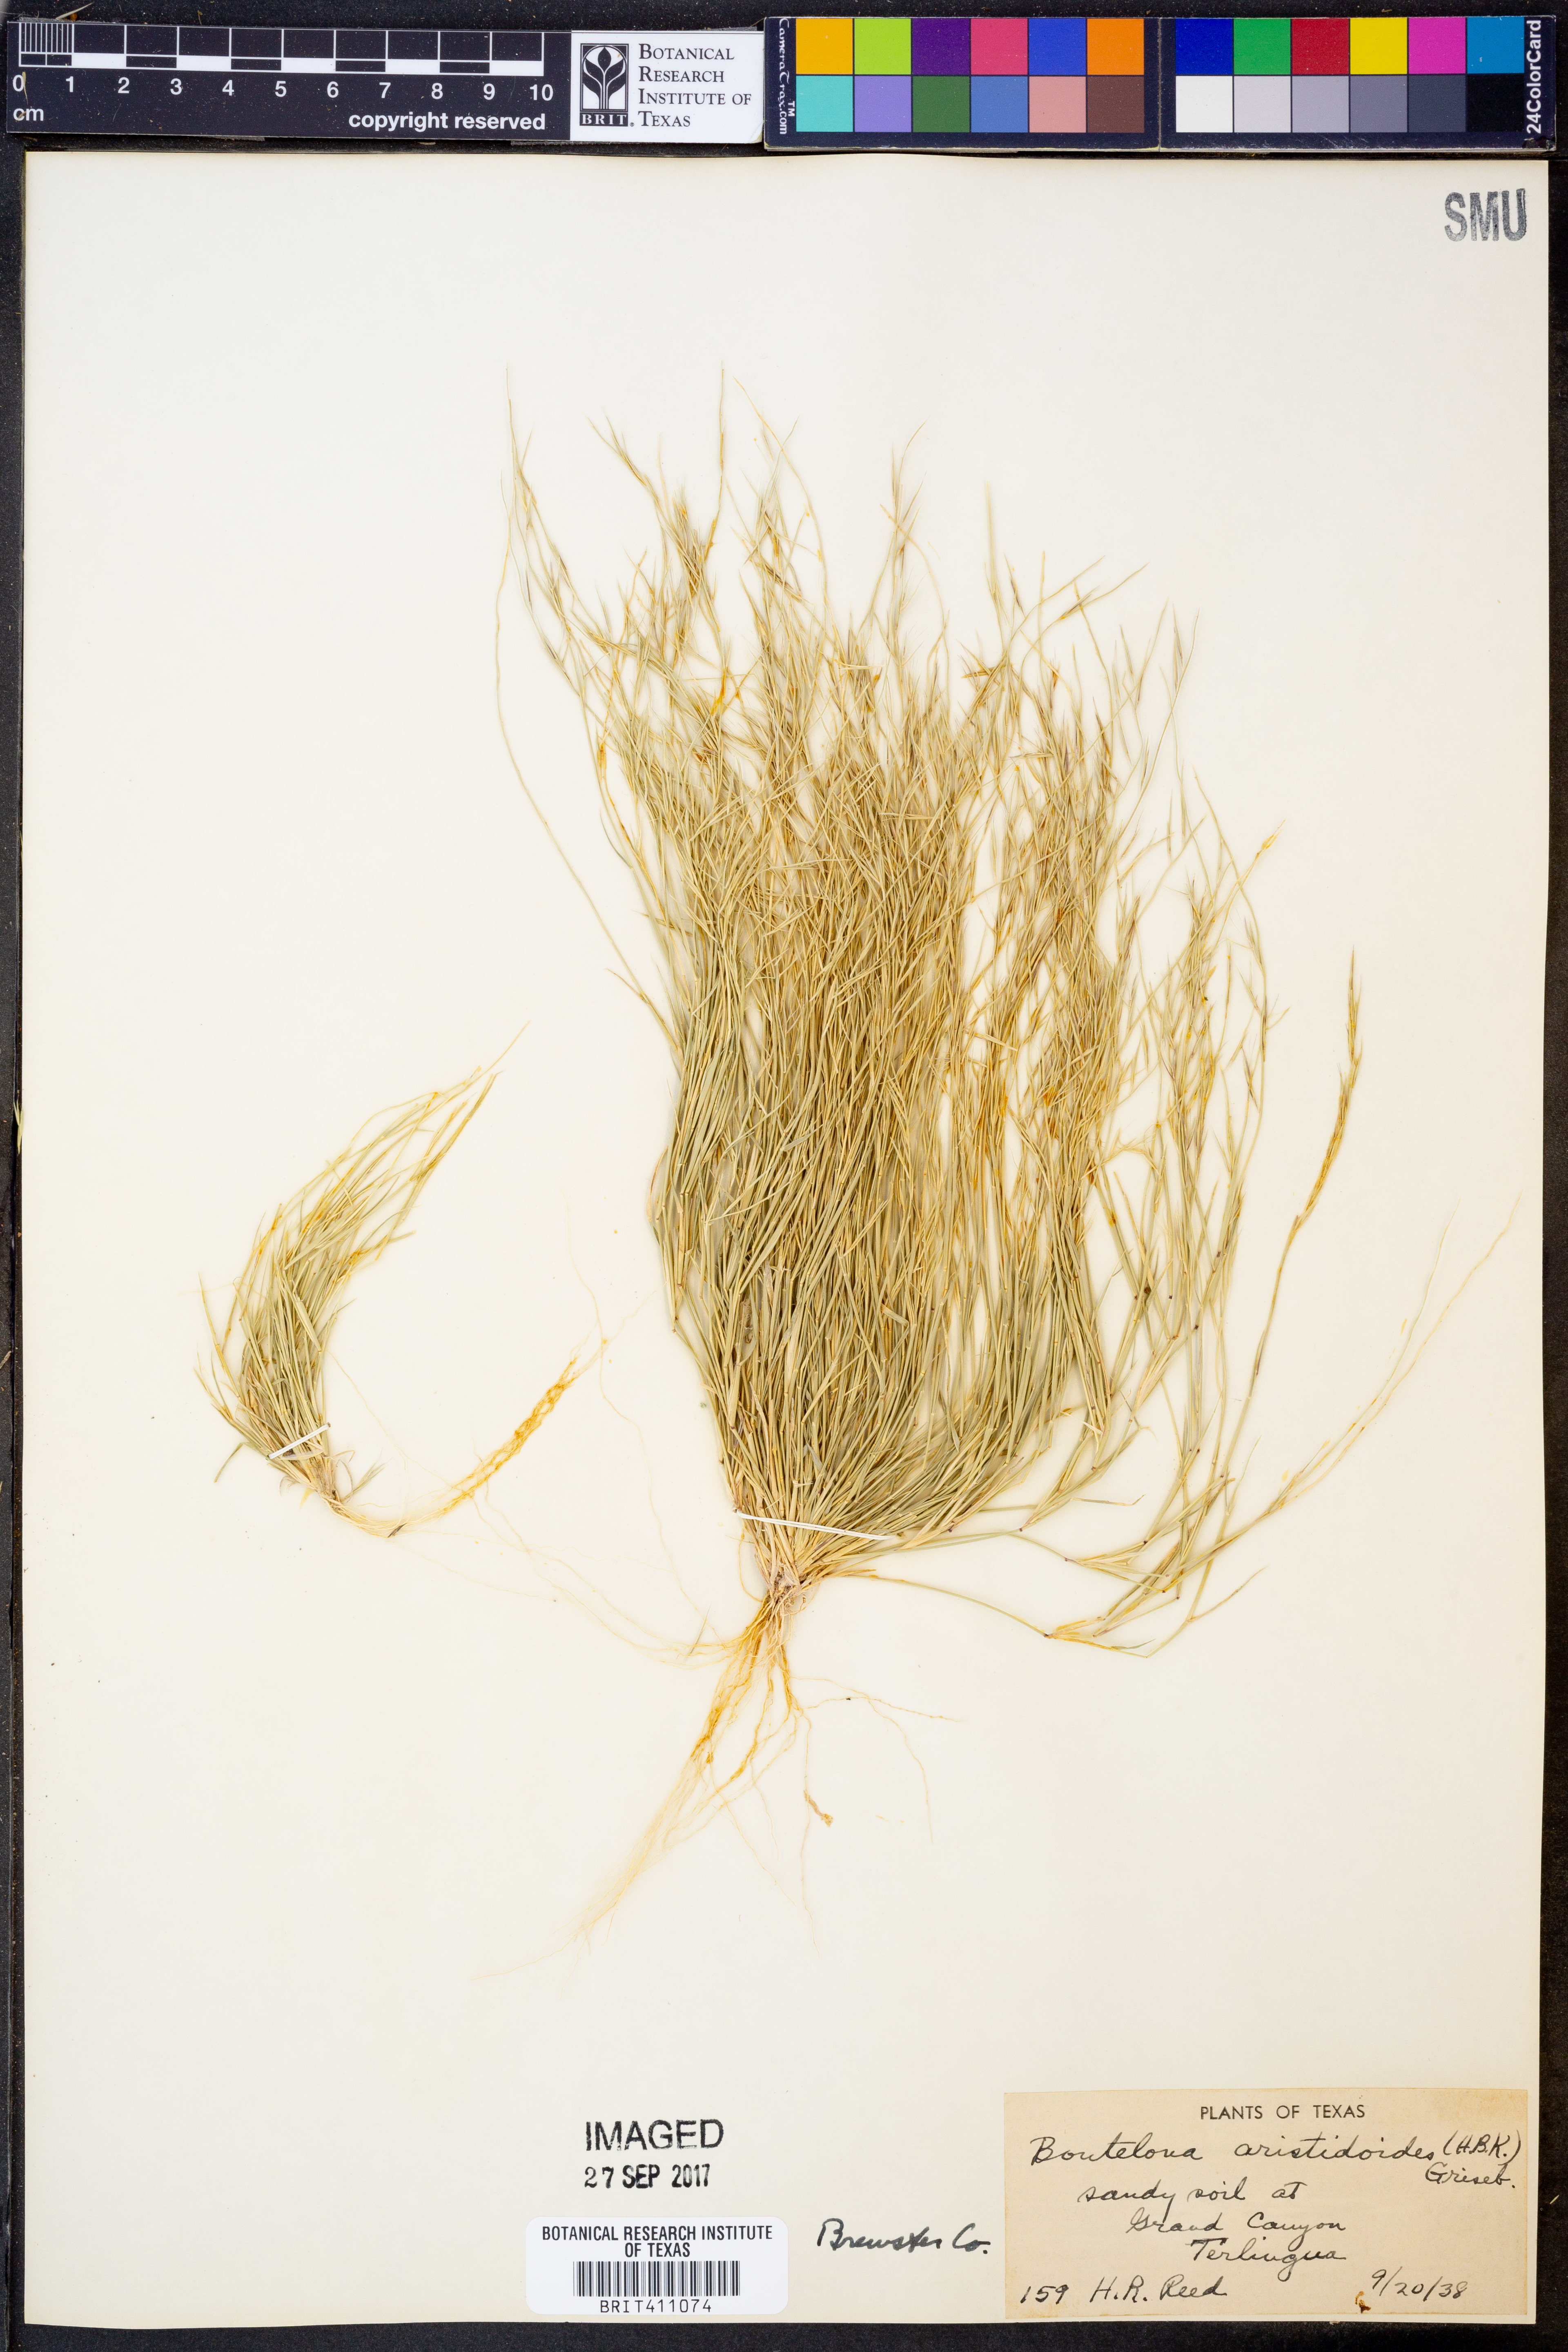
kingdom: Plantae
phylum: Tracheophyta
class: Liliopsida
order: Poales
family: Poaceae
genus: Bouteloua
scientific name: Bouteloua aristidoides
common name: Needle grama
